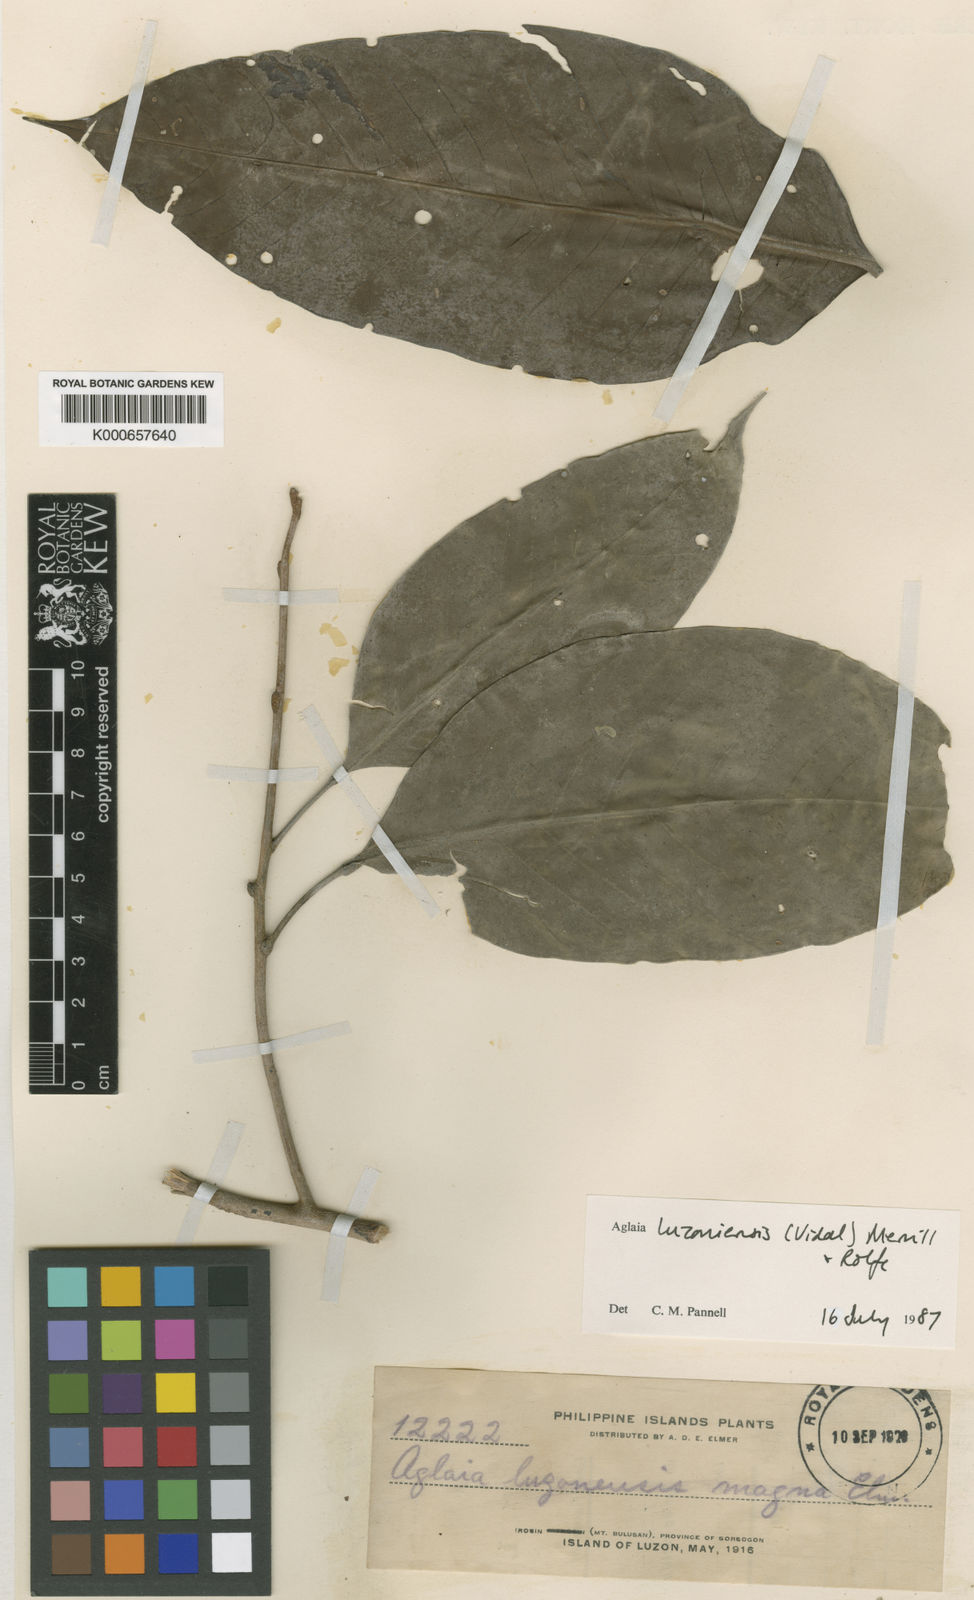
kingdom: Plantae
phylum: Tracheophyta
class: Magnoliopsida
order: Sapindales
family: Meliaceae
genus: Aglaia
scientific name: Aglaia luzoniensis
